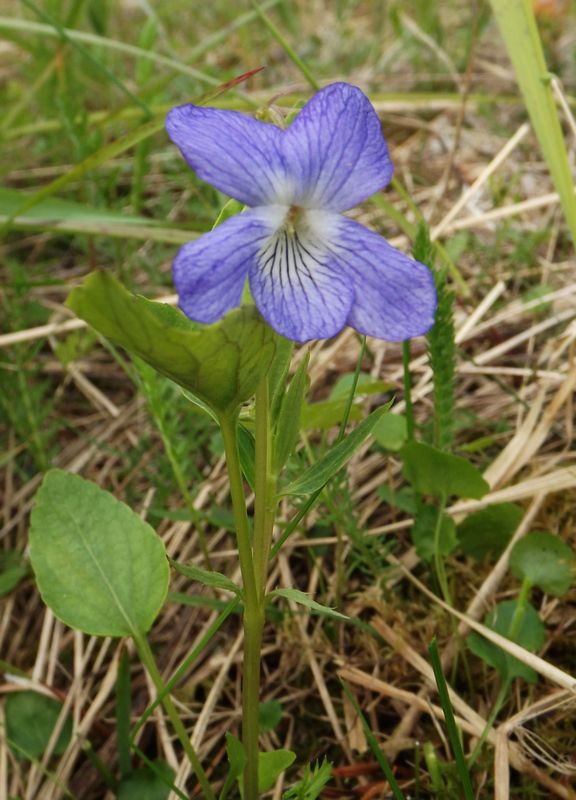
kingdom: Plantae
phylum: Tracheophyta
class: Magnoliopsida
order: Malpighiales
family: Violaceae
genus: Viola
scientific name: Viola canina
